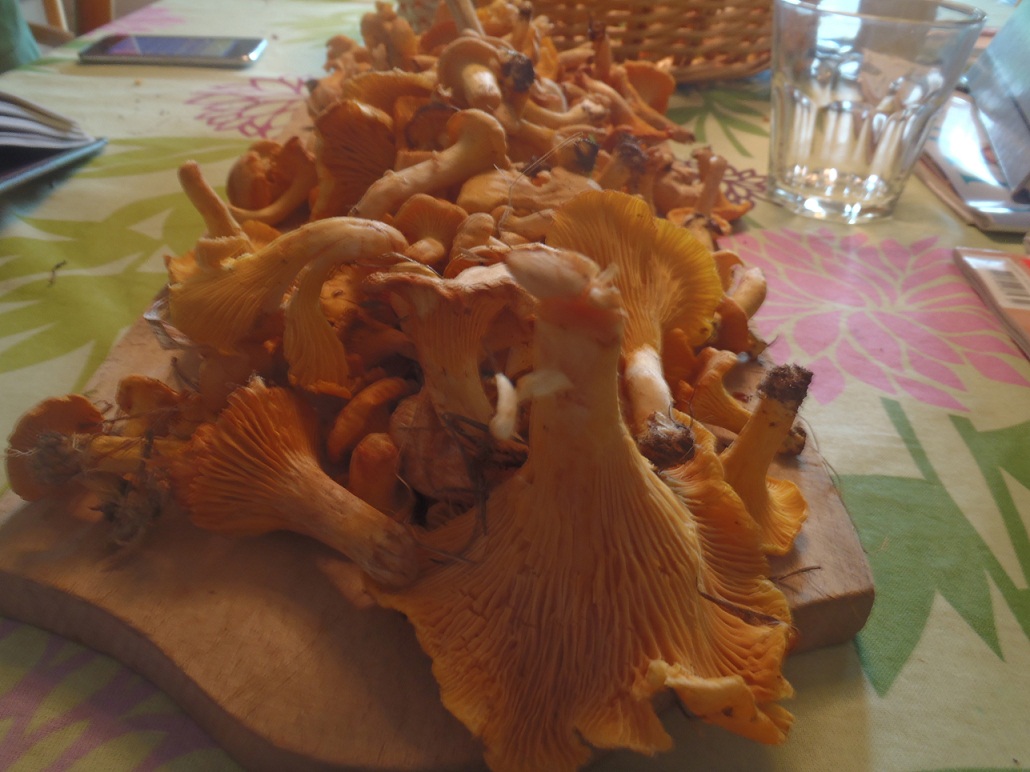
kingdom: Fungi
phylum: Basidiomycota
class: Agaricomycetes
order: Cantharellales
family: Hydnaceae
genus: Cantharellus
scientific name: Cantharellus cibarius
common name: almindelig kantarel
